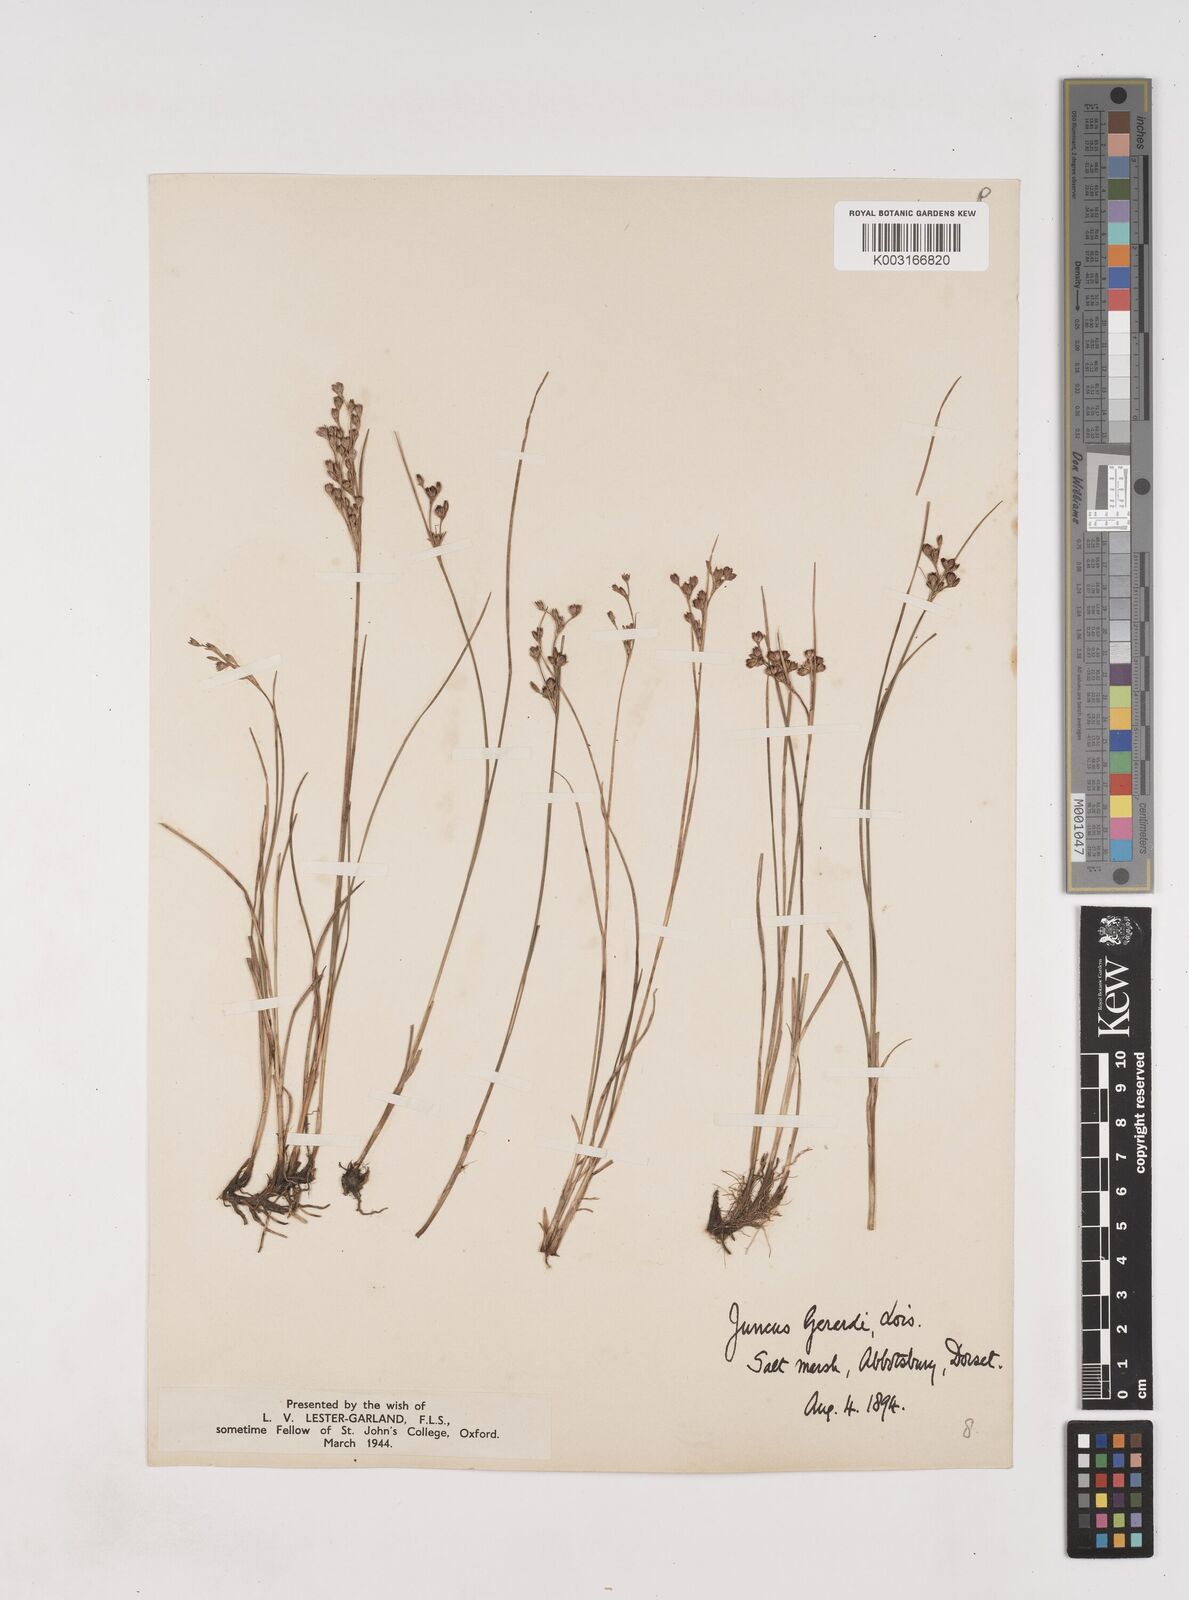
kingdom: Plantae
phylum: Tracheophyta
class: Liliopsida
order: Poales
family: Juncaceae
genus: Juncus
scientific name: Juncus gerardi
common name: Saltmarsh rush
